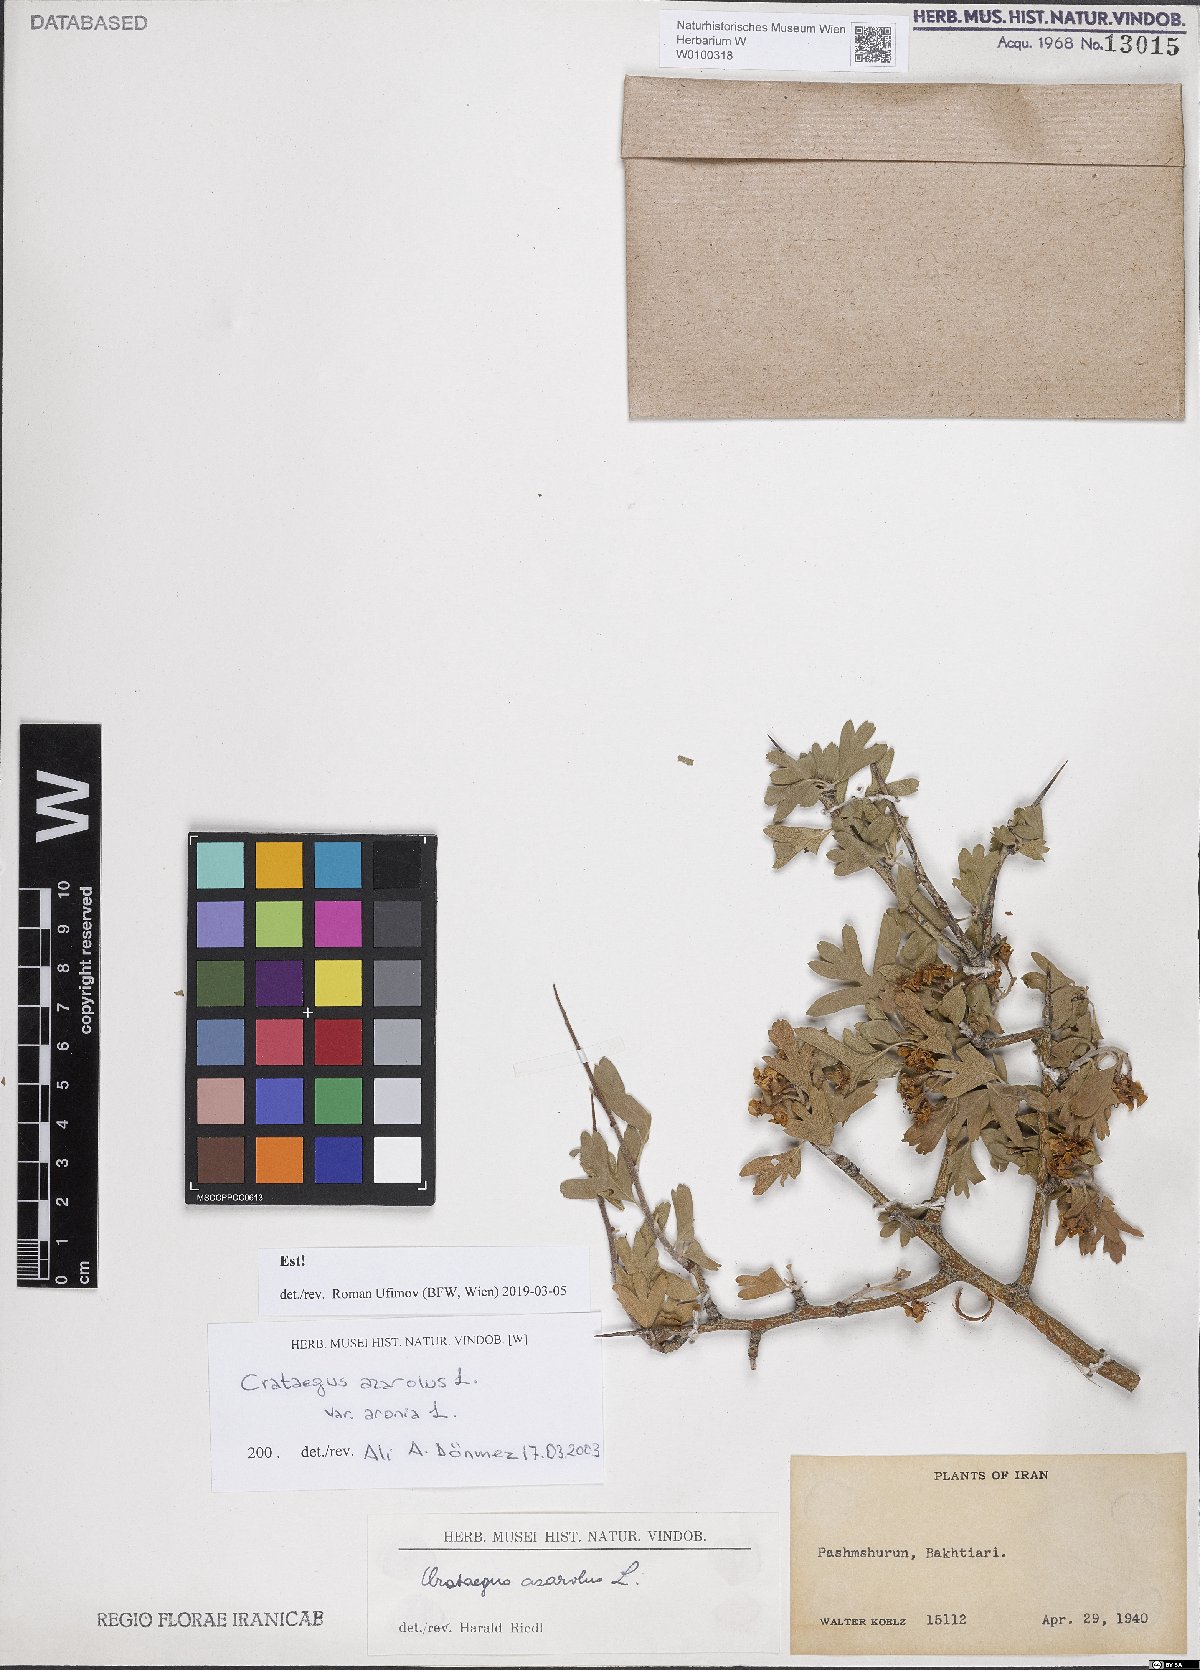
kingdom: Plantae
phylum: Tracheophyta
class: Magnoliopsida
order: Rosales
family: Rosaceae
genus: Crataegus
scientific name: Crataegus azarolus
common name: Azarole
